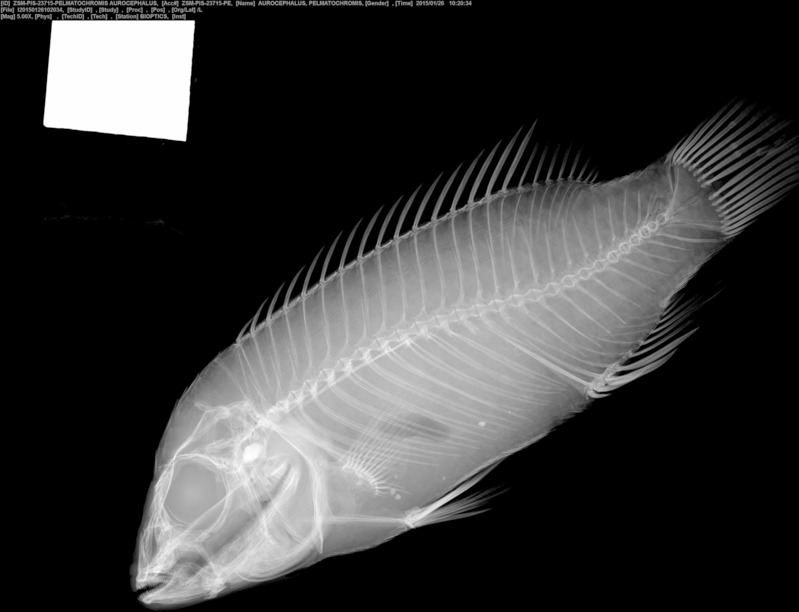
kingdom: Animalia
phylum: Chordata
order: Perciformes
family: Cichlidae
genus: Pelvicachromis
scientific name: Pelvicachromis pulcher
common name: Kribensis
